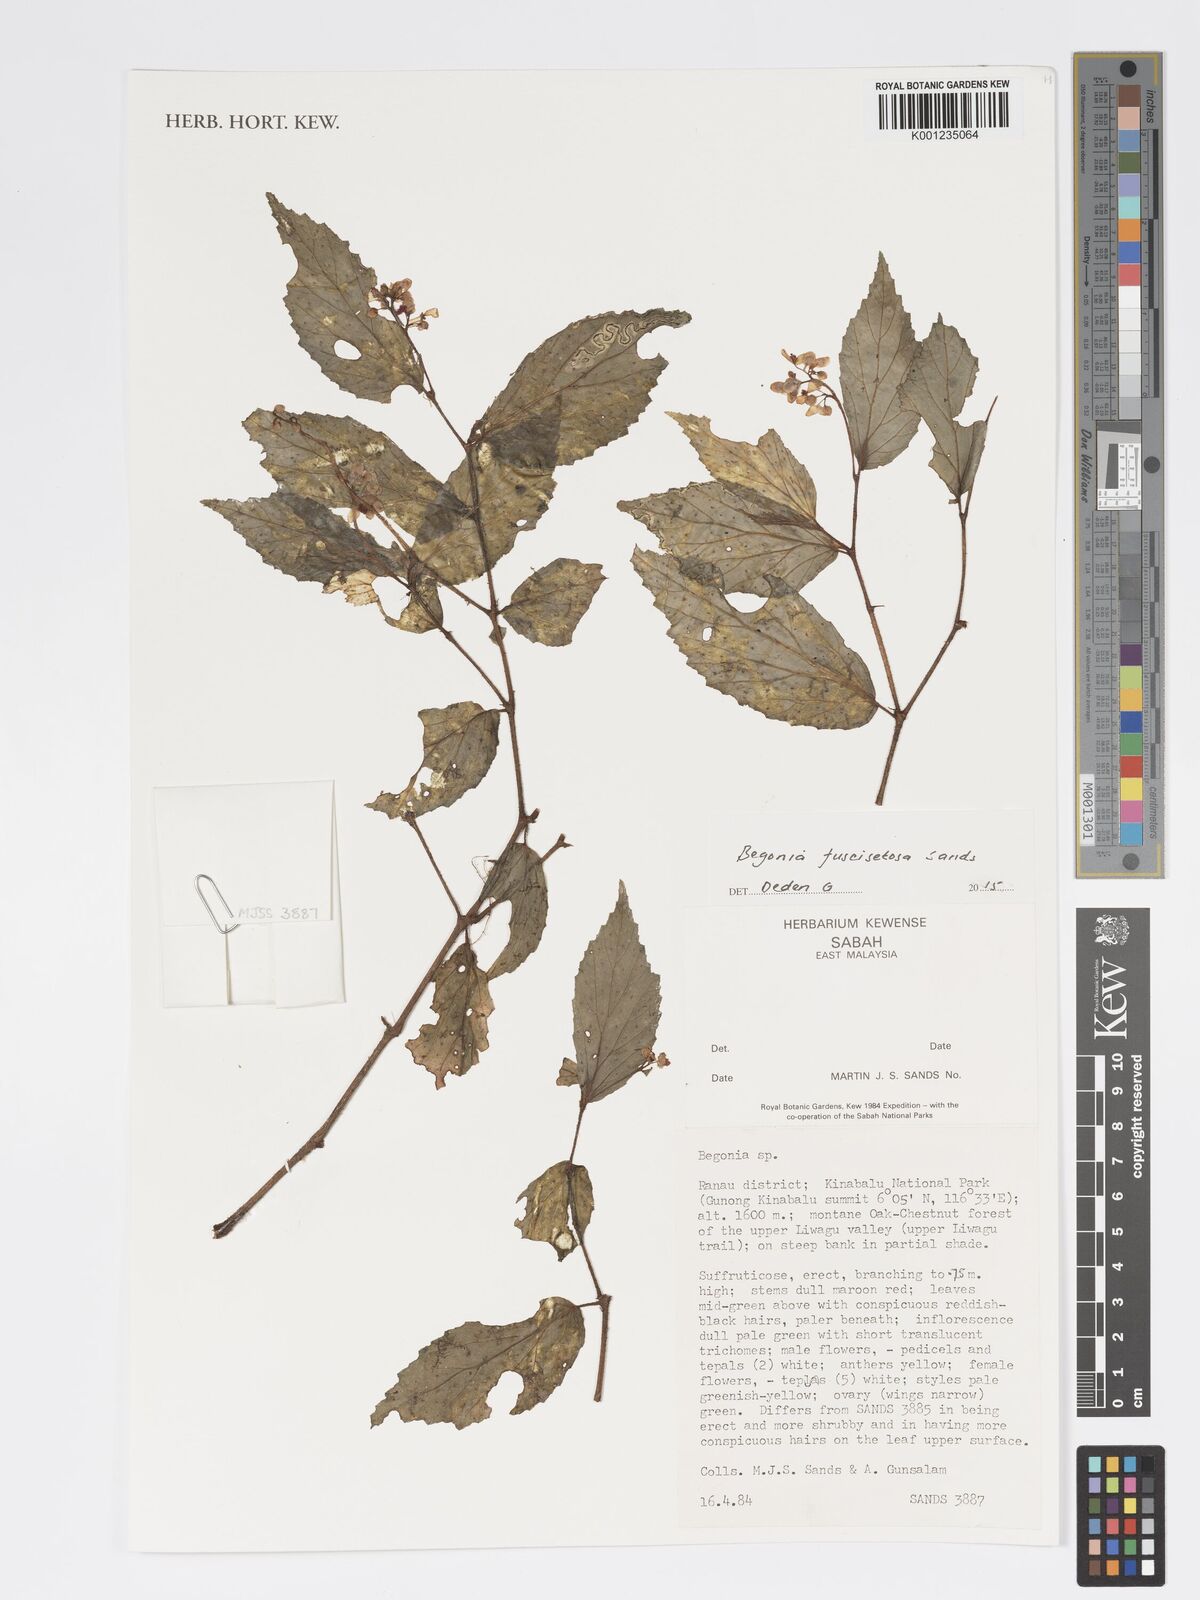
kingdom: Plantae
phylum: Tracheophyta
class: Magnoliopsida
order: Cucurbitales
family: Begoniaceae
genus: Begonia
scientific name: Begonia fuscisetosa
